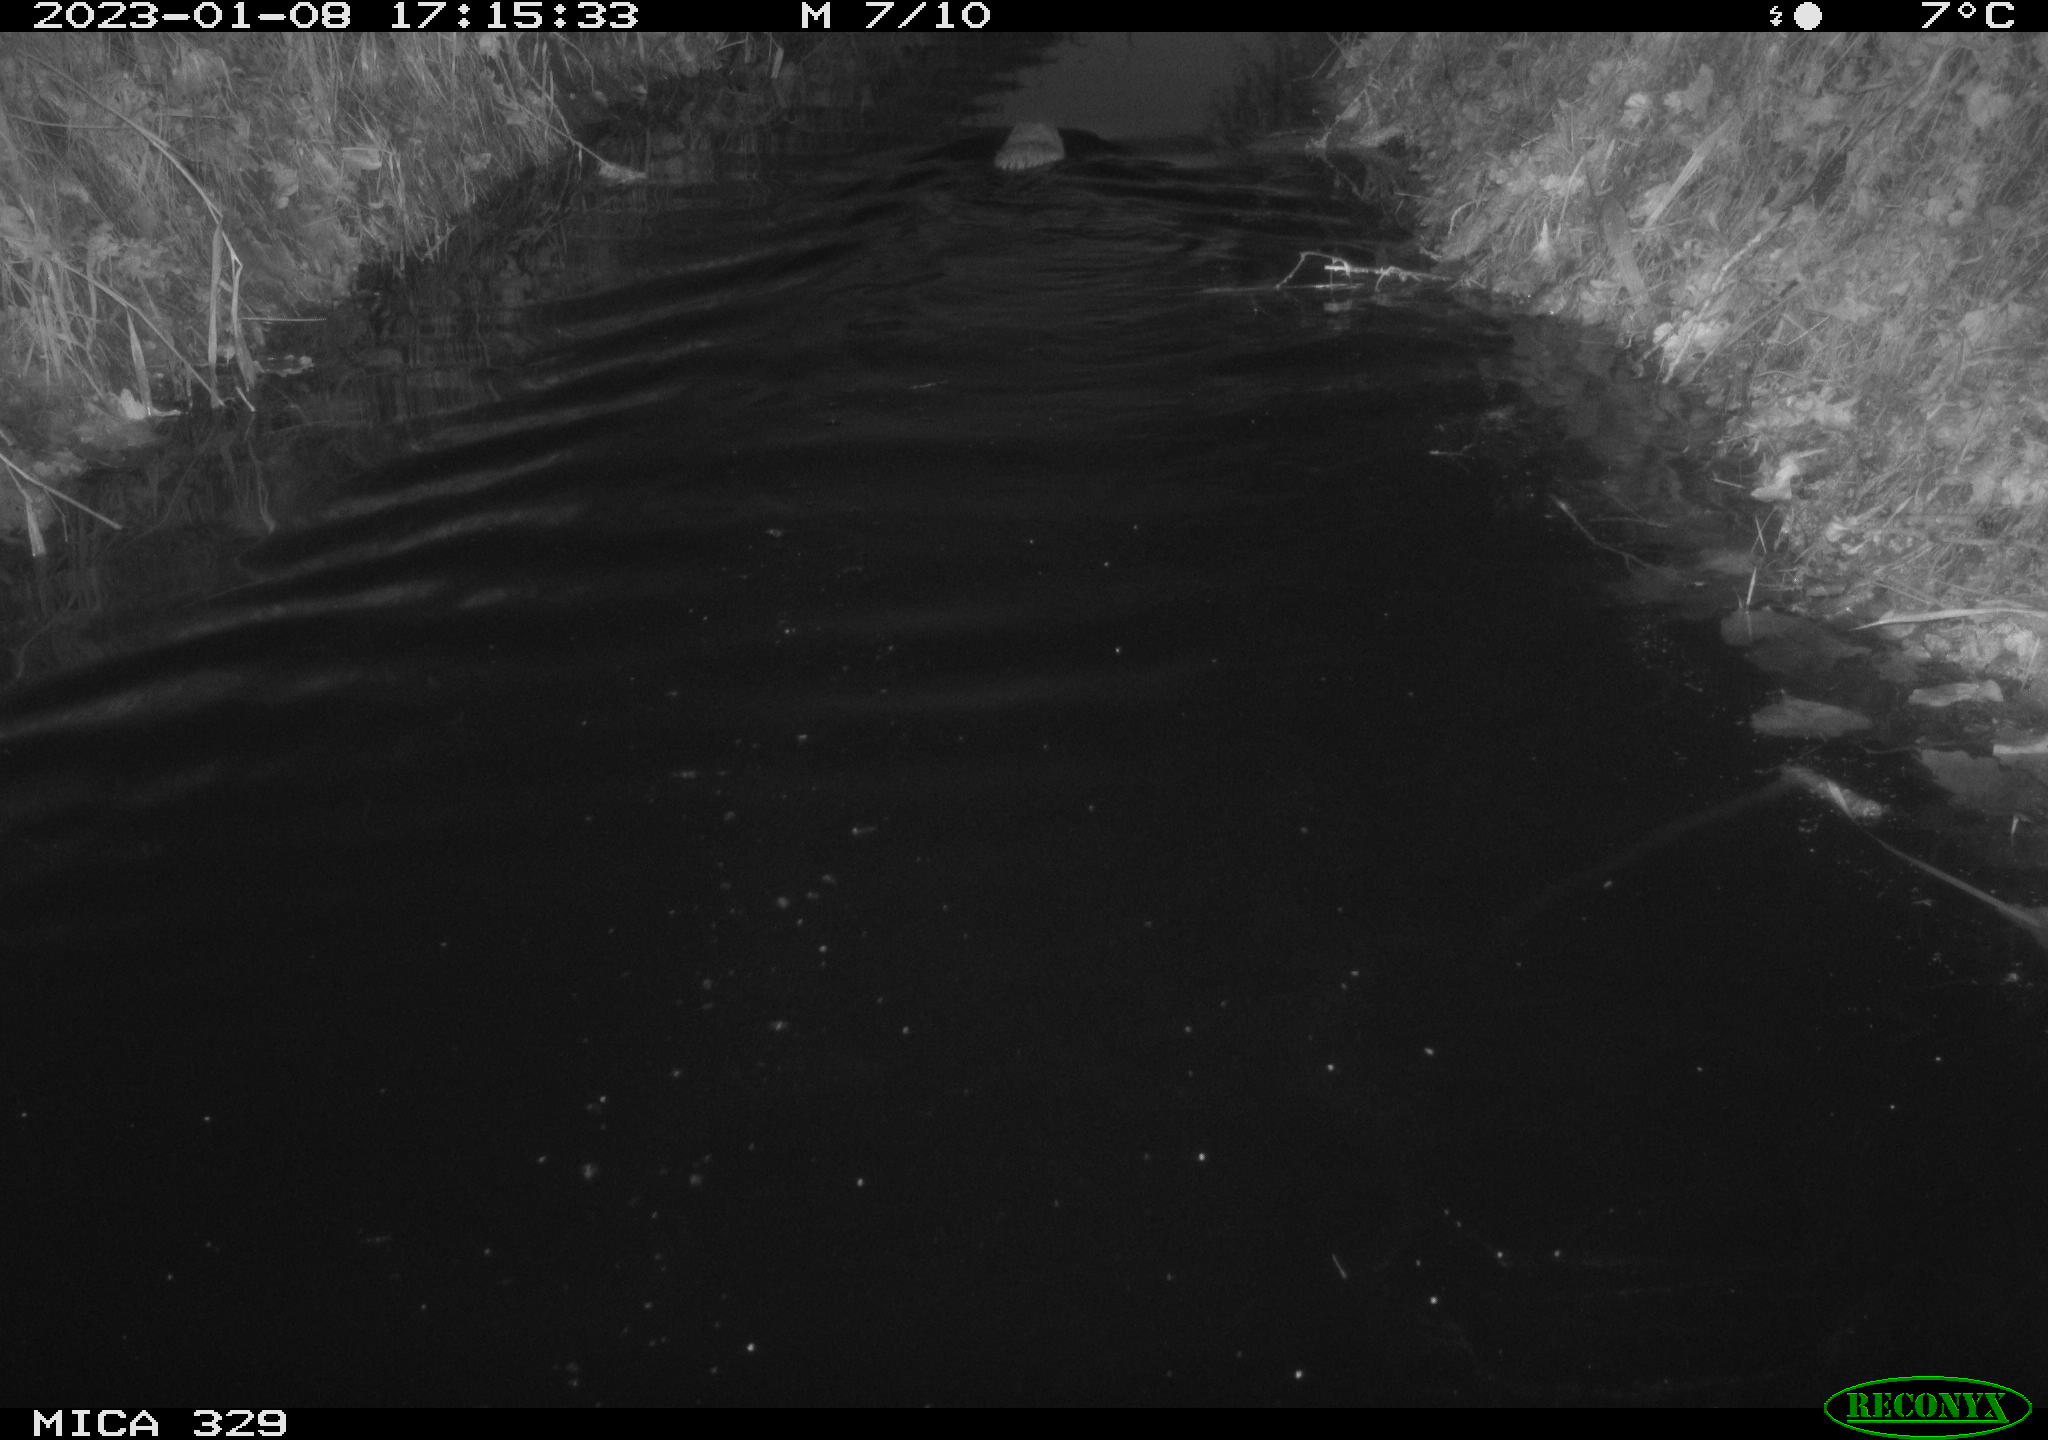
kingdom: Animalia
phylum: Chordata
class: Mammalia
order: Rodentia
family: Cricetidae
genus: Ondatra
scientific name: Ondatra zibethicus
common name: Muskrat
